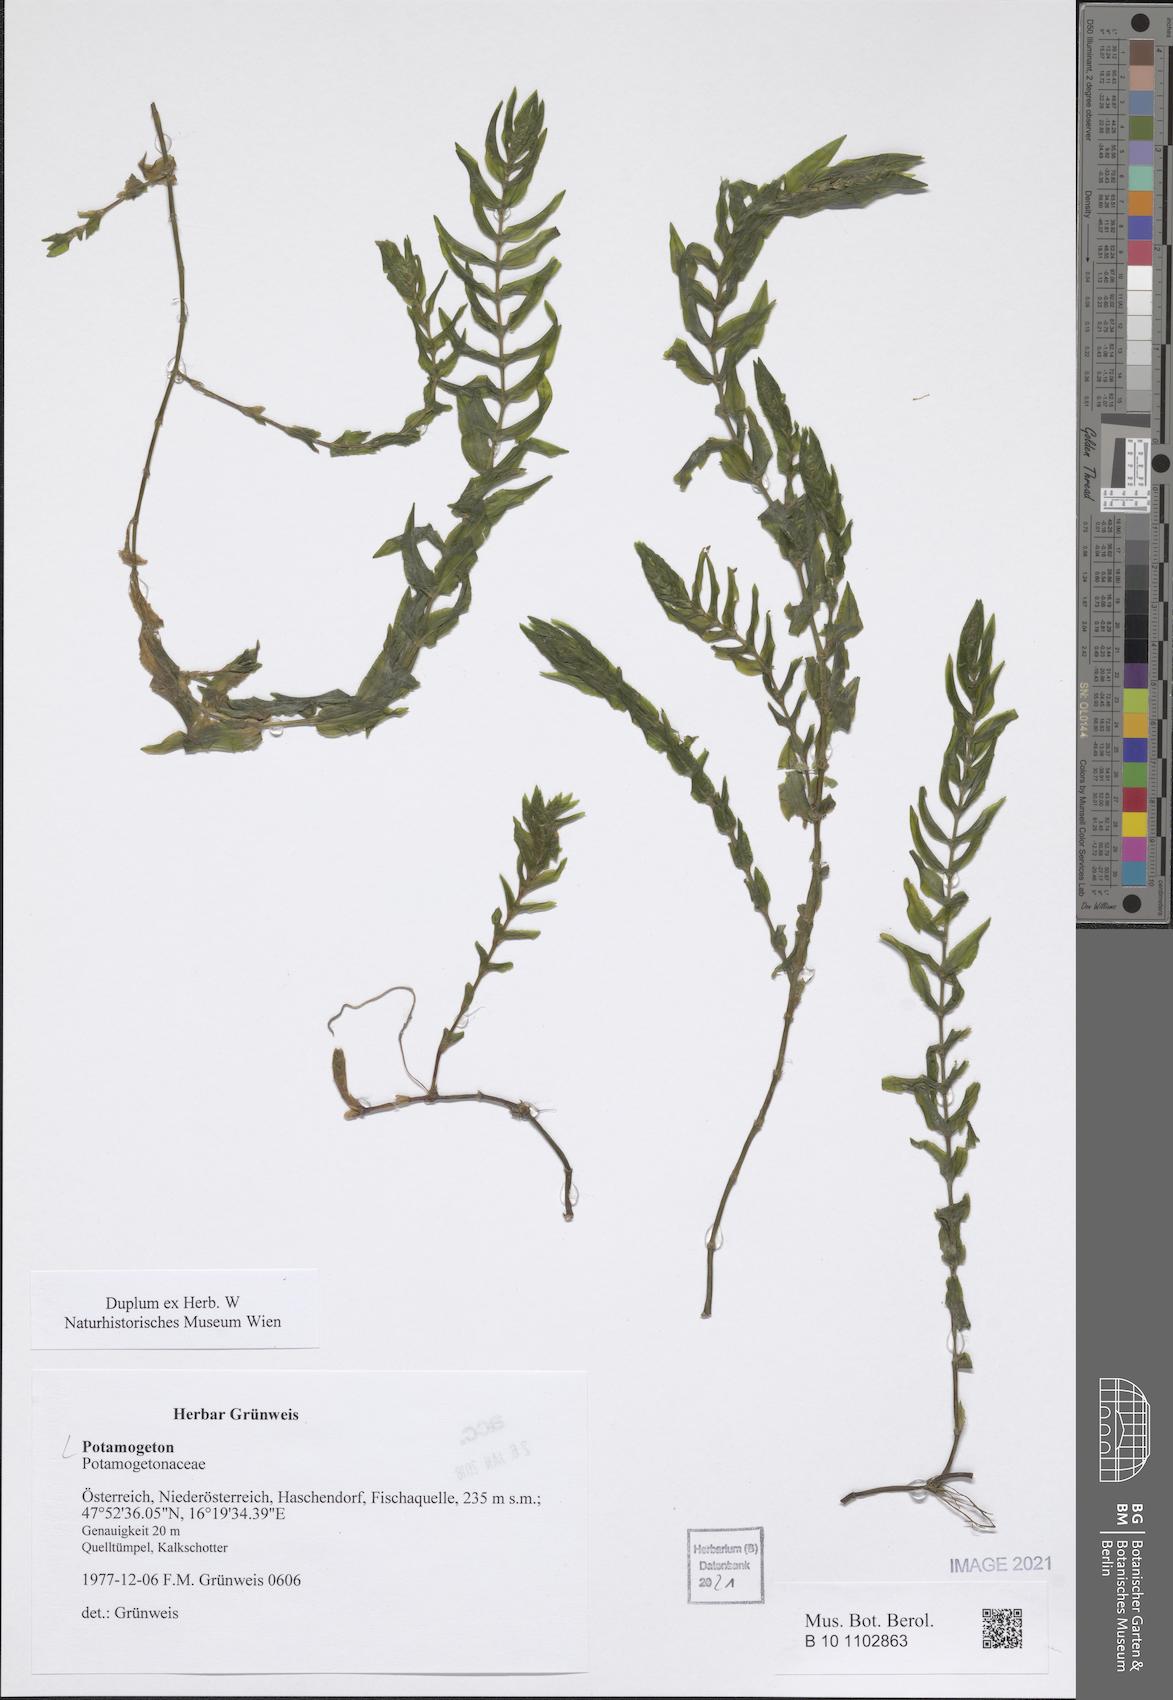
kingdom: Plantae
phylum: Tracheophyta
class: Liliopsida
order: Alismatales
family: Potamogetonaceae
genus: Potamogeton
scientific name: Potamogeton
